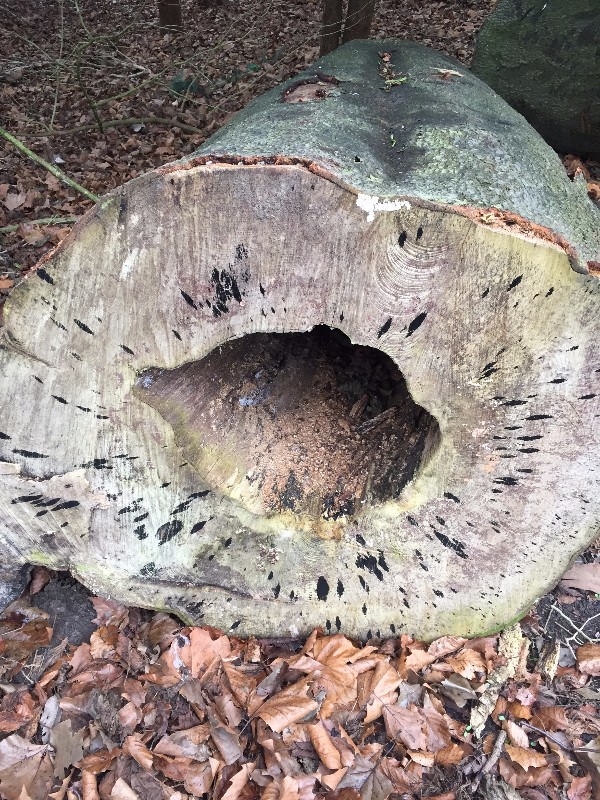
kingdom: Fungi
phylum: Ascomycota
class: Leotiomycetes
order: Helotiales
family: Helotiaceae
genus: Bispora
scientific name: Bispora pallescens
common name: måtte-snitskive
